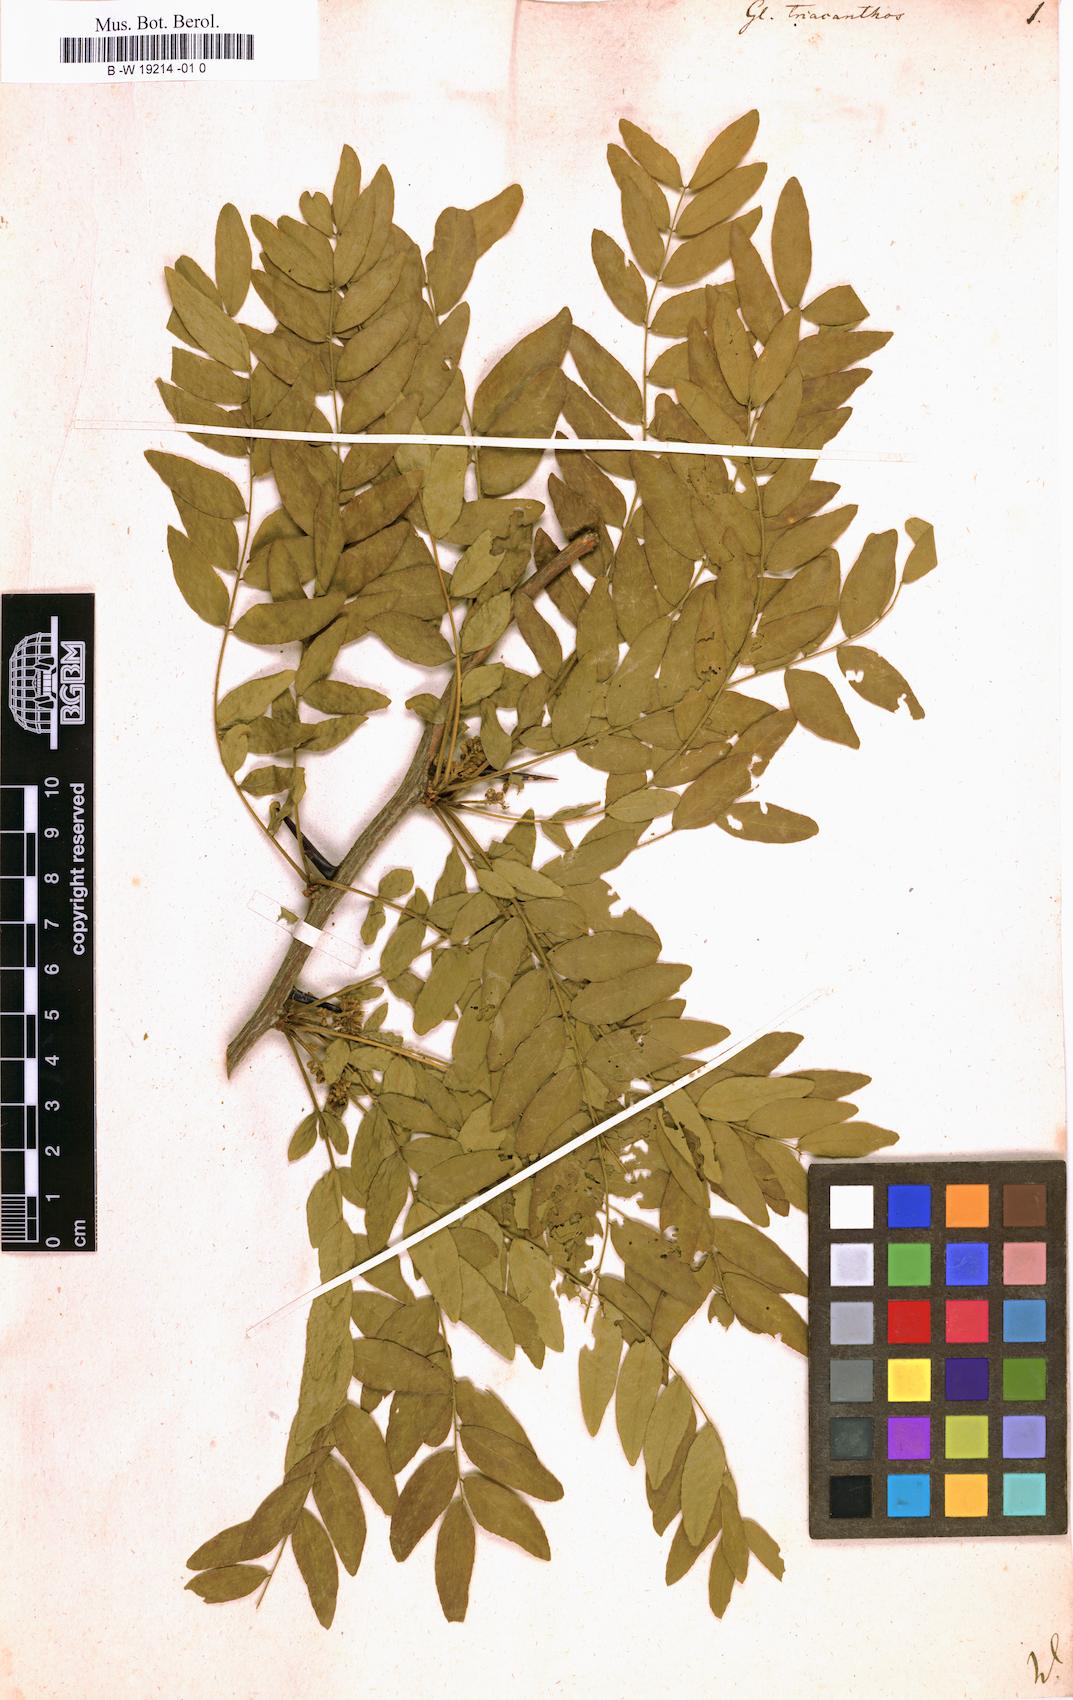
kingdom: Plantae
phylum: Tracheophyta
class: Magnoliopsida
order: Fabales
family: Fabaceae
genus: Gleditsia
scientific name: Gleditsia triacanthos
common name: Common honeylocust
